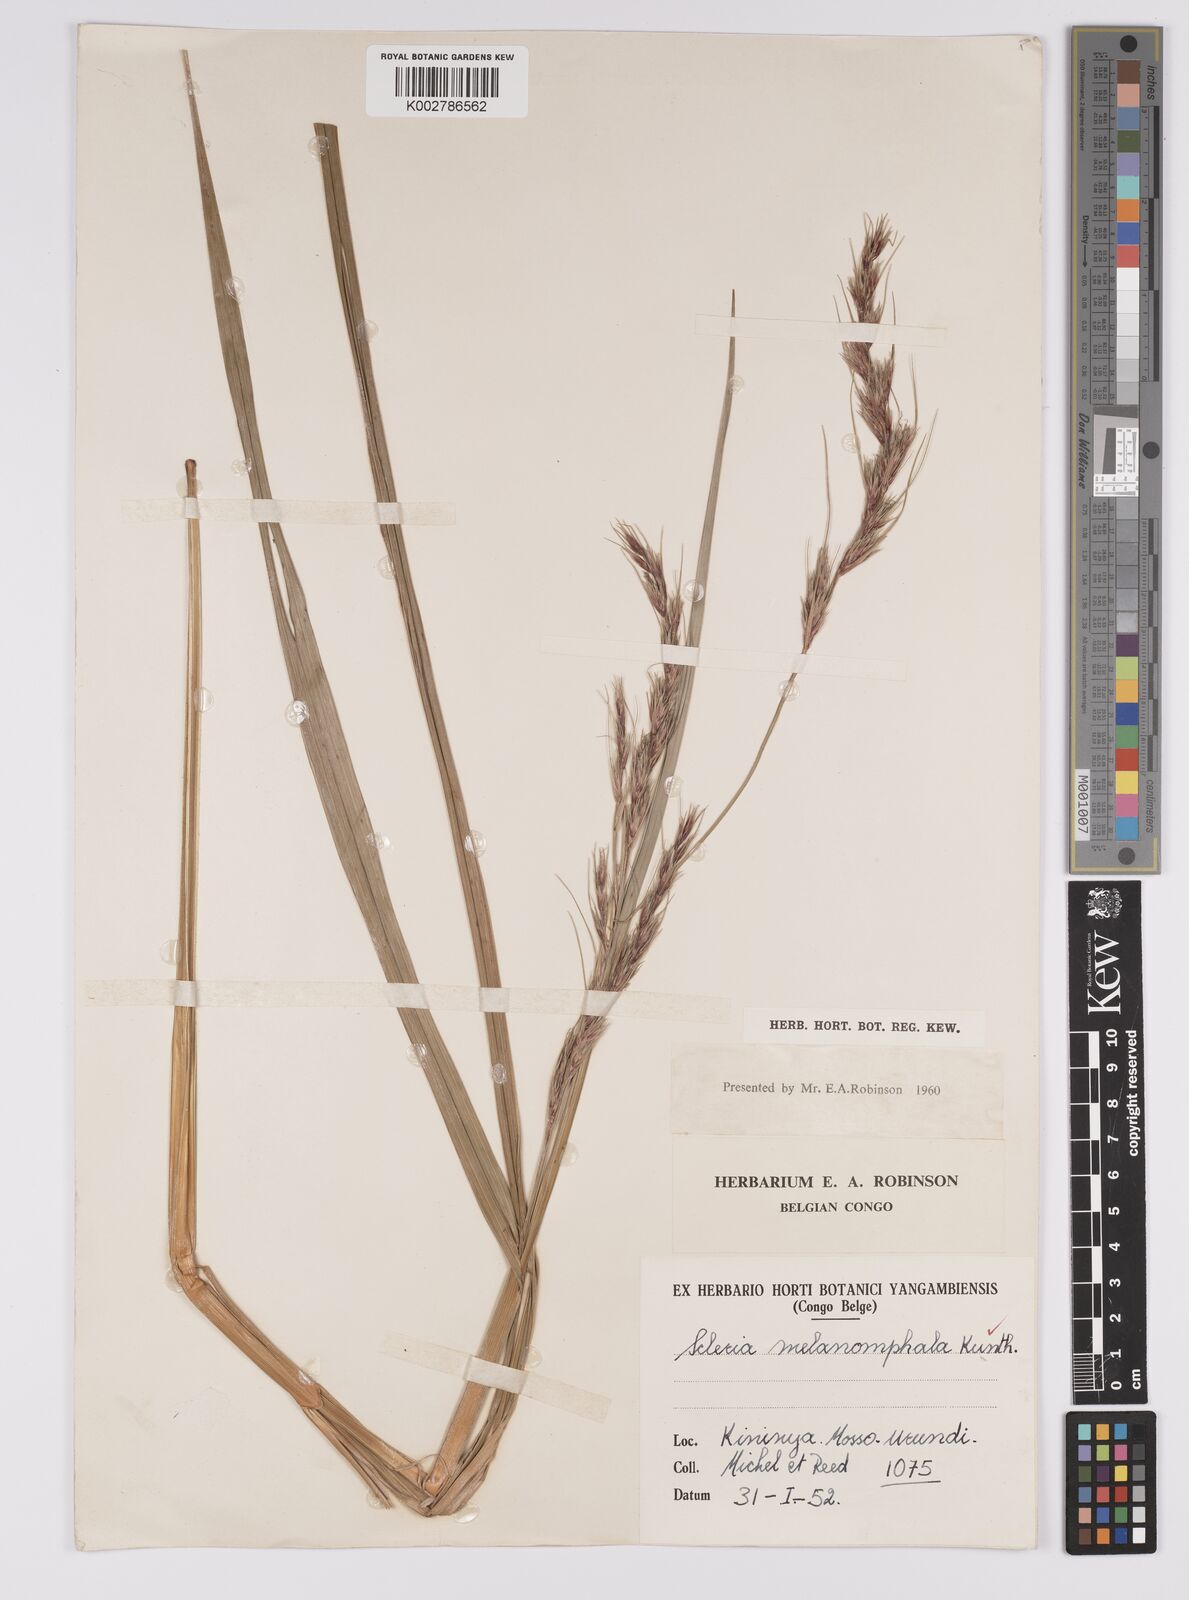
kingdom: Plantae
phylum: Tracheophyta
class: Liliopsida
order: Poales
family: Cyperaceae
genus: Scleria
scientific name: Scleria melanomphala
